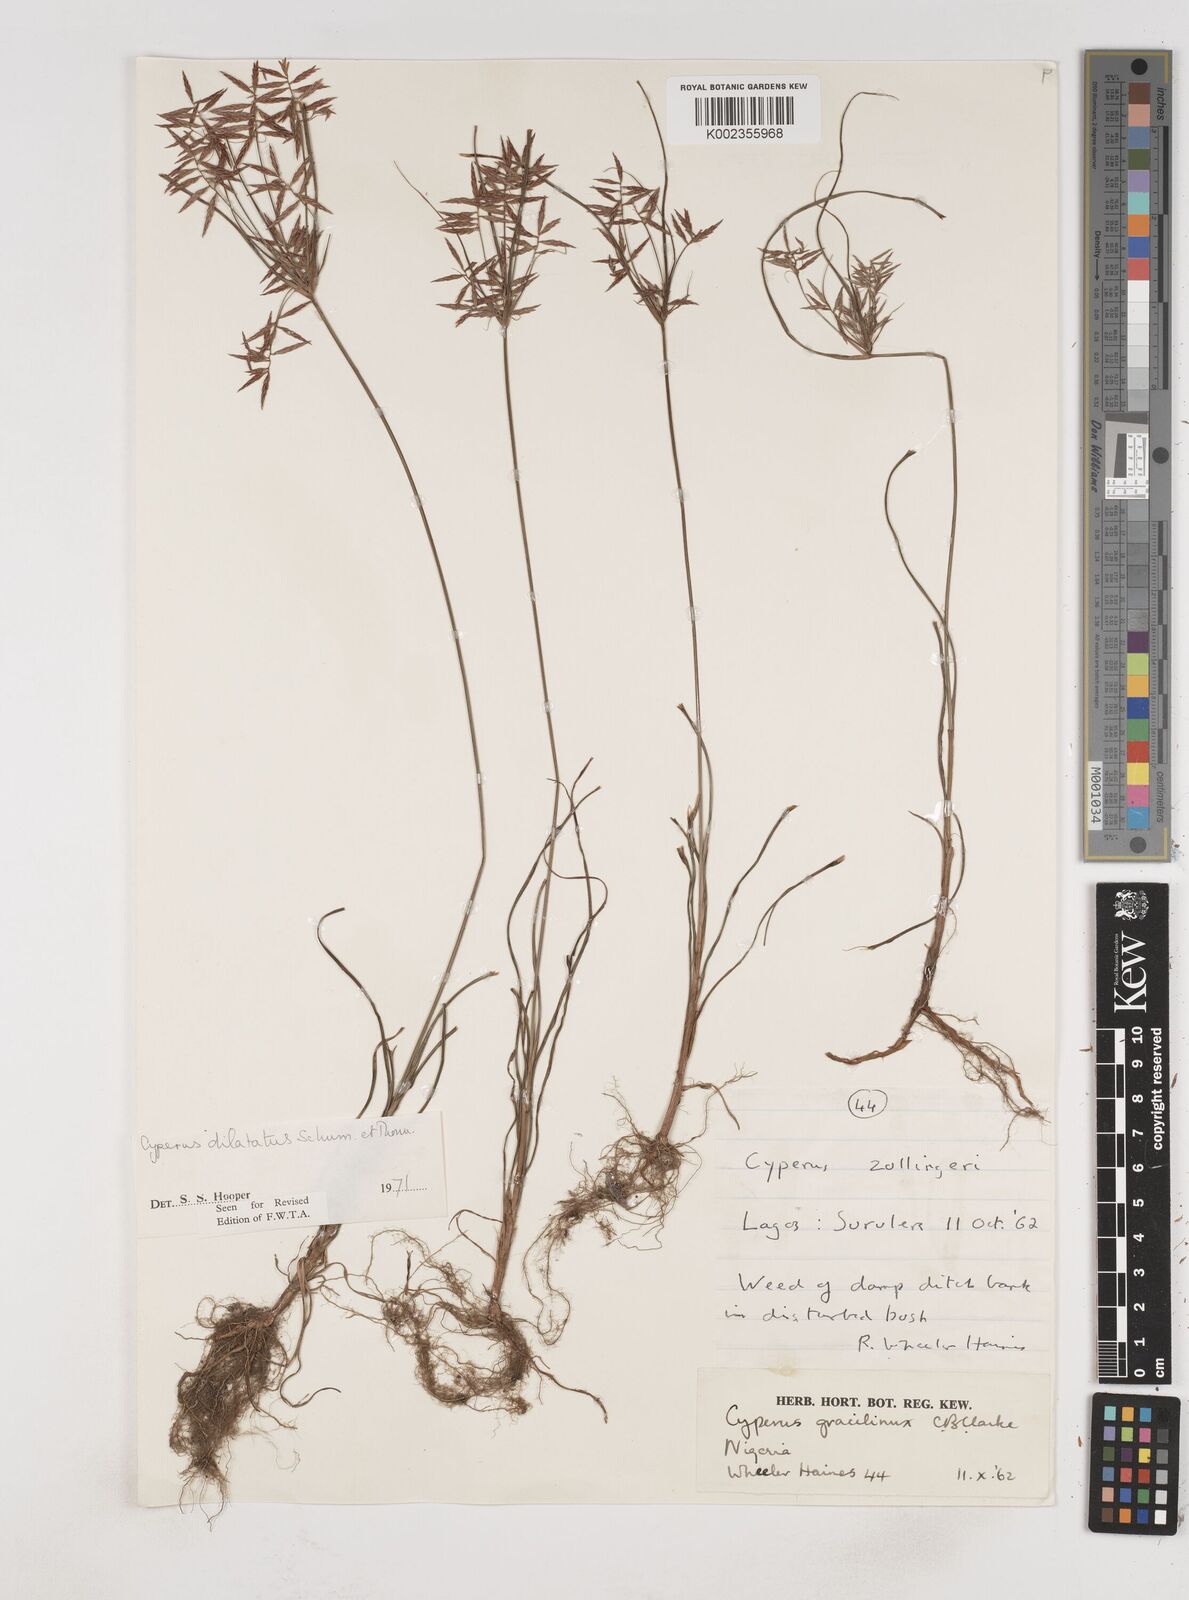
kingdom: Plantae
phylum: Tracheophyta
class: Liliopsida
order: Poales
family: Cyperaceae
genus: Cyperus
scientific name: Cyperus dilatatus
